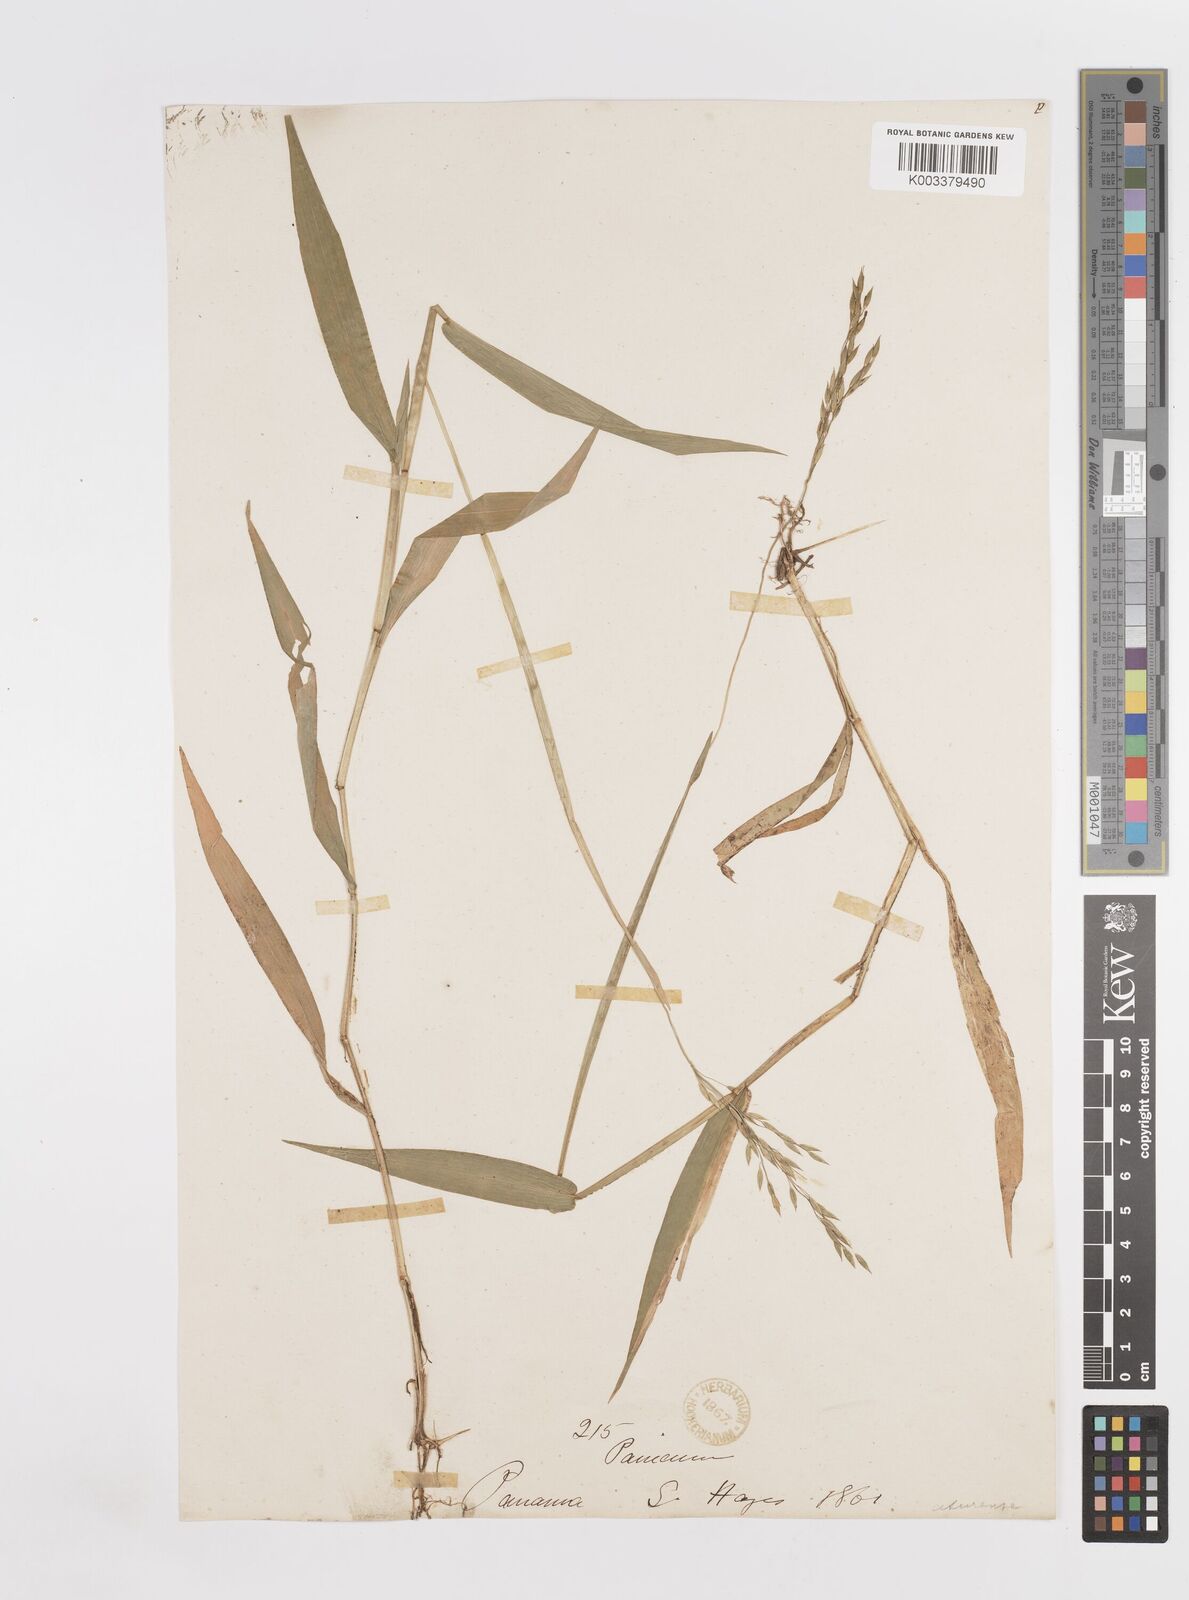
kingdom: Plantae
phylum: Tracheophyta
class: Liliopsida
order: Poales
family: Poaceae
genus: Homolepis
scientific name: Homolepis aturensis
